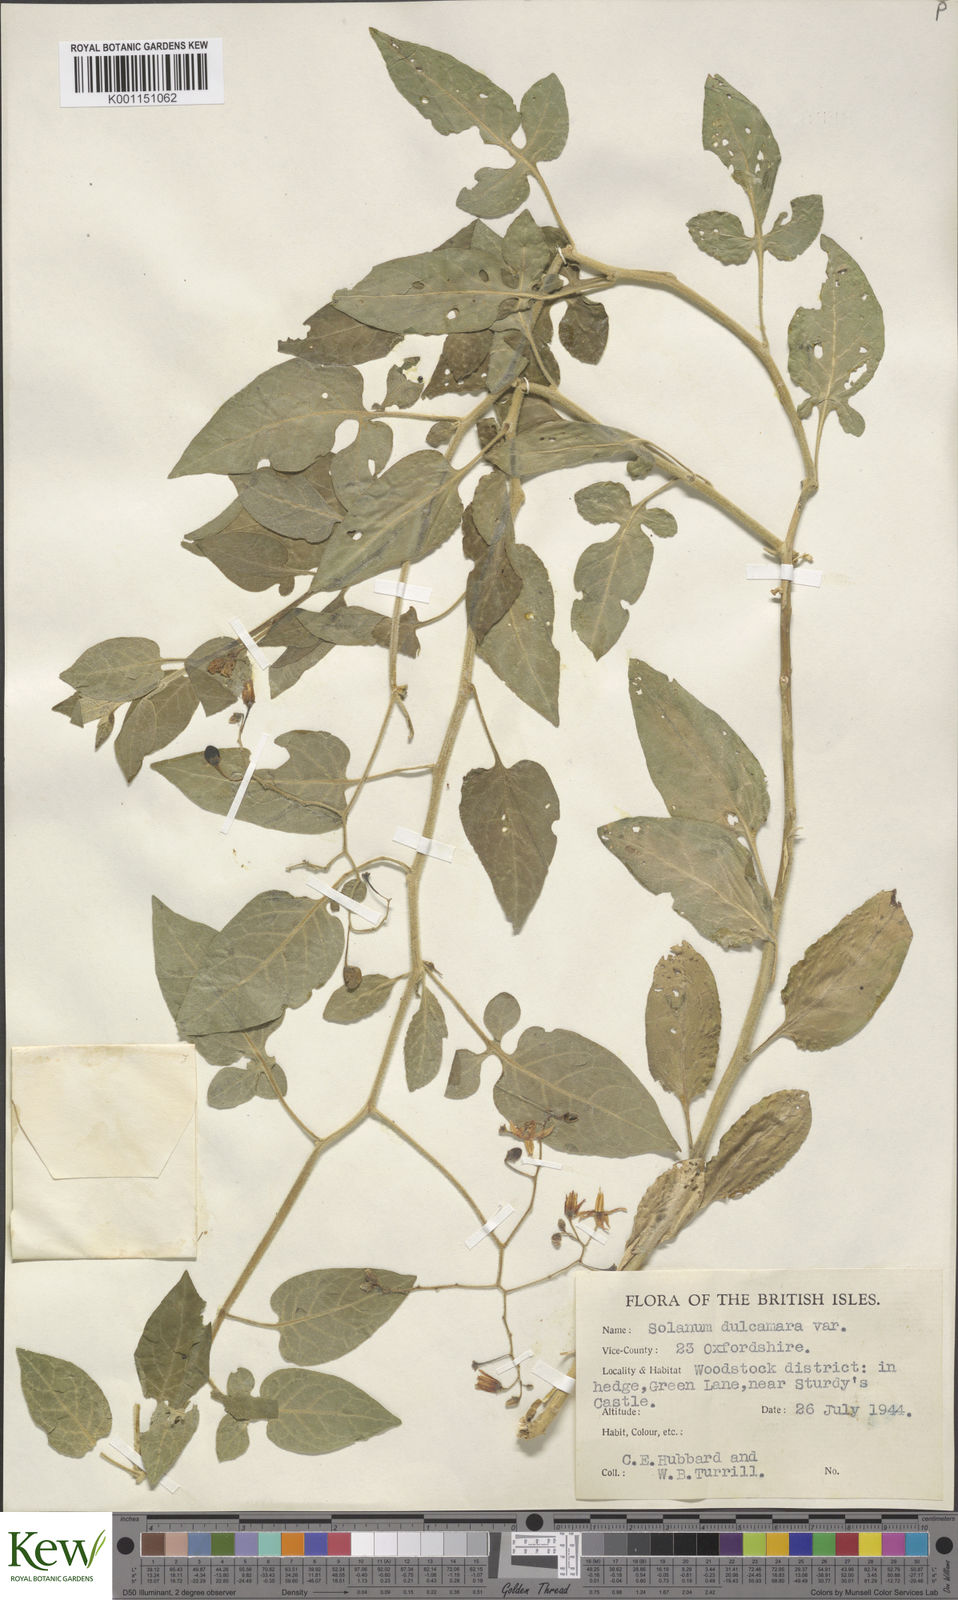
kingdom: Plantae
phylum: Tracheophyta
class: Magnoliopsida
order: Solanales
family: Solanaceae
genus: Solanum
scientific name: Solanum dulcamara
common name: Climbing nightshade
